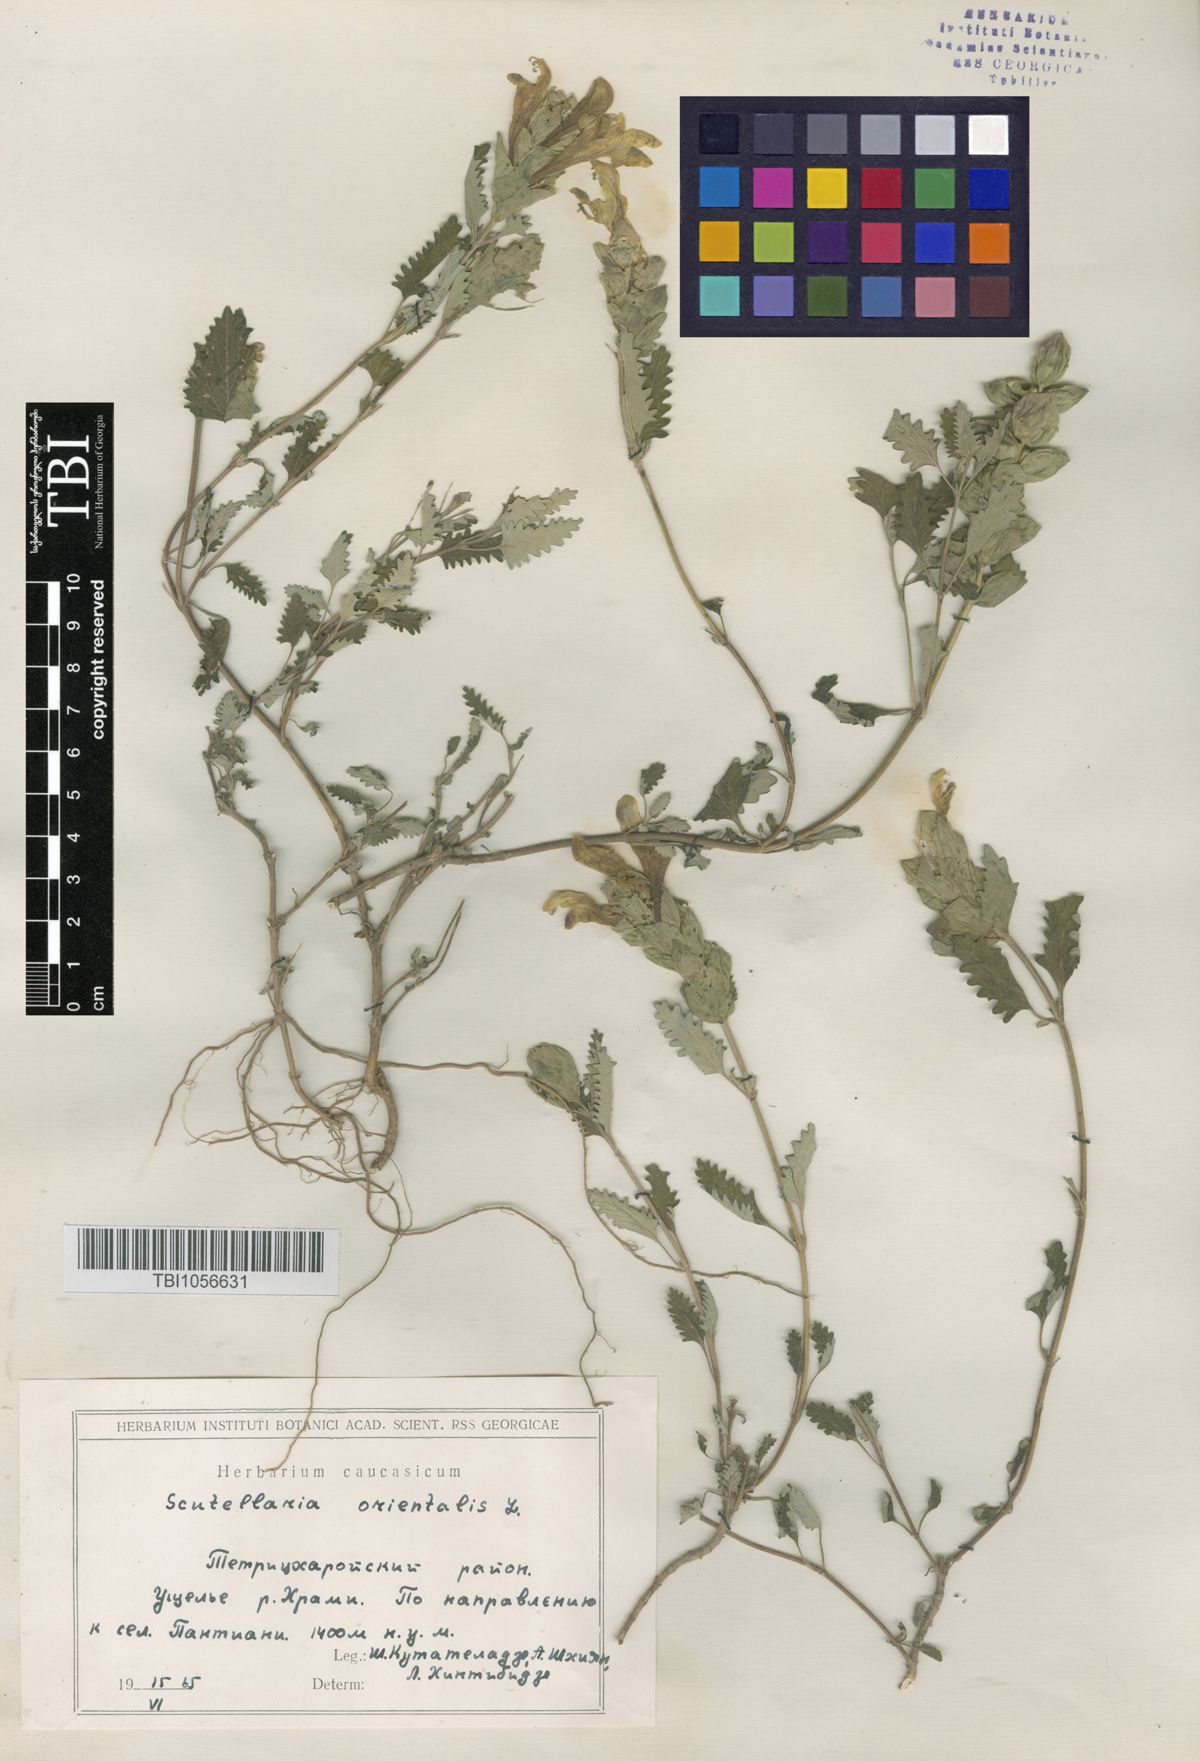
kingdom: Plantae
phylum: Tracheophyta
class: Magnoliopsida
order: Lamiales
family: Lamiaceae
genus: Scutellaria
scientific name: Scutellaria orientalis
